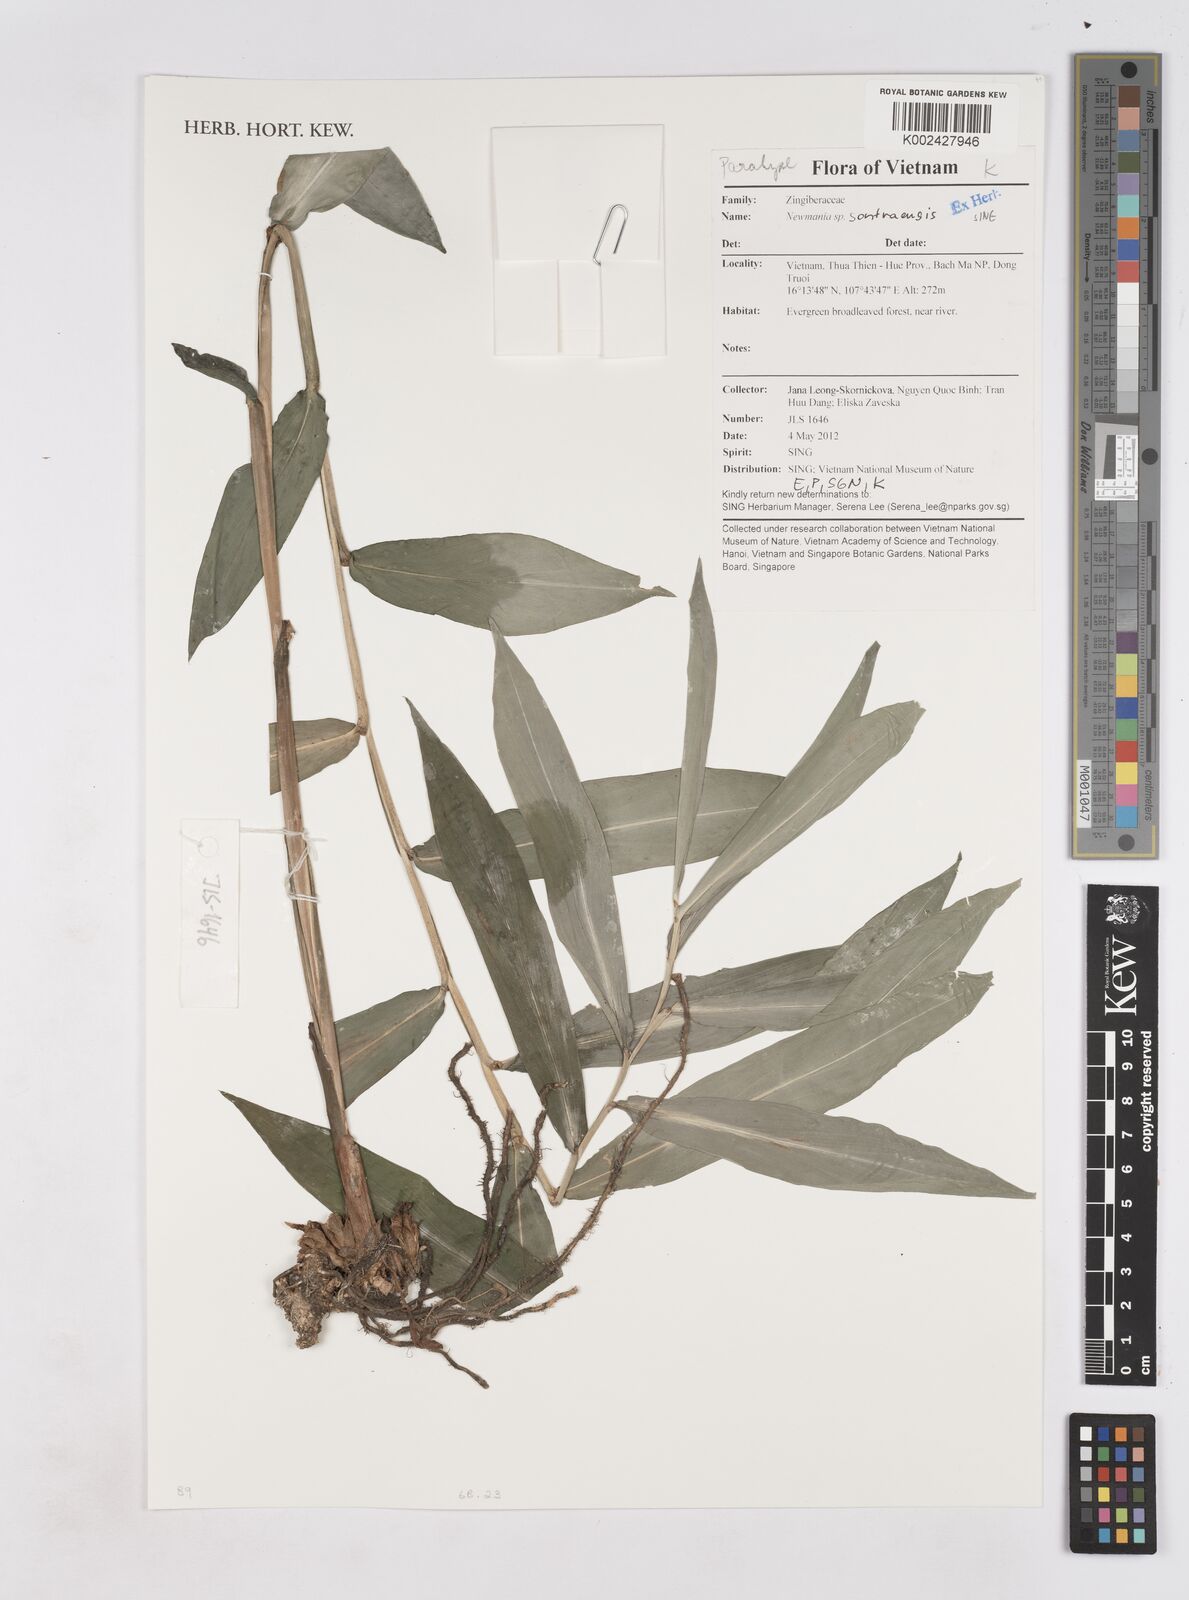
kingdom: Plantae
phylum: Tracheophyta
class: Liliopsida
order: Zingiberales
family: Zingiberaceae
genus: Newmania
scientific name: Newmania sontraensis
